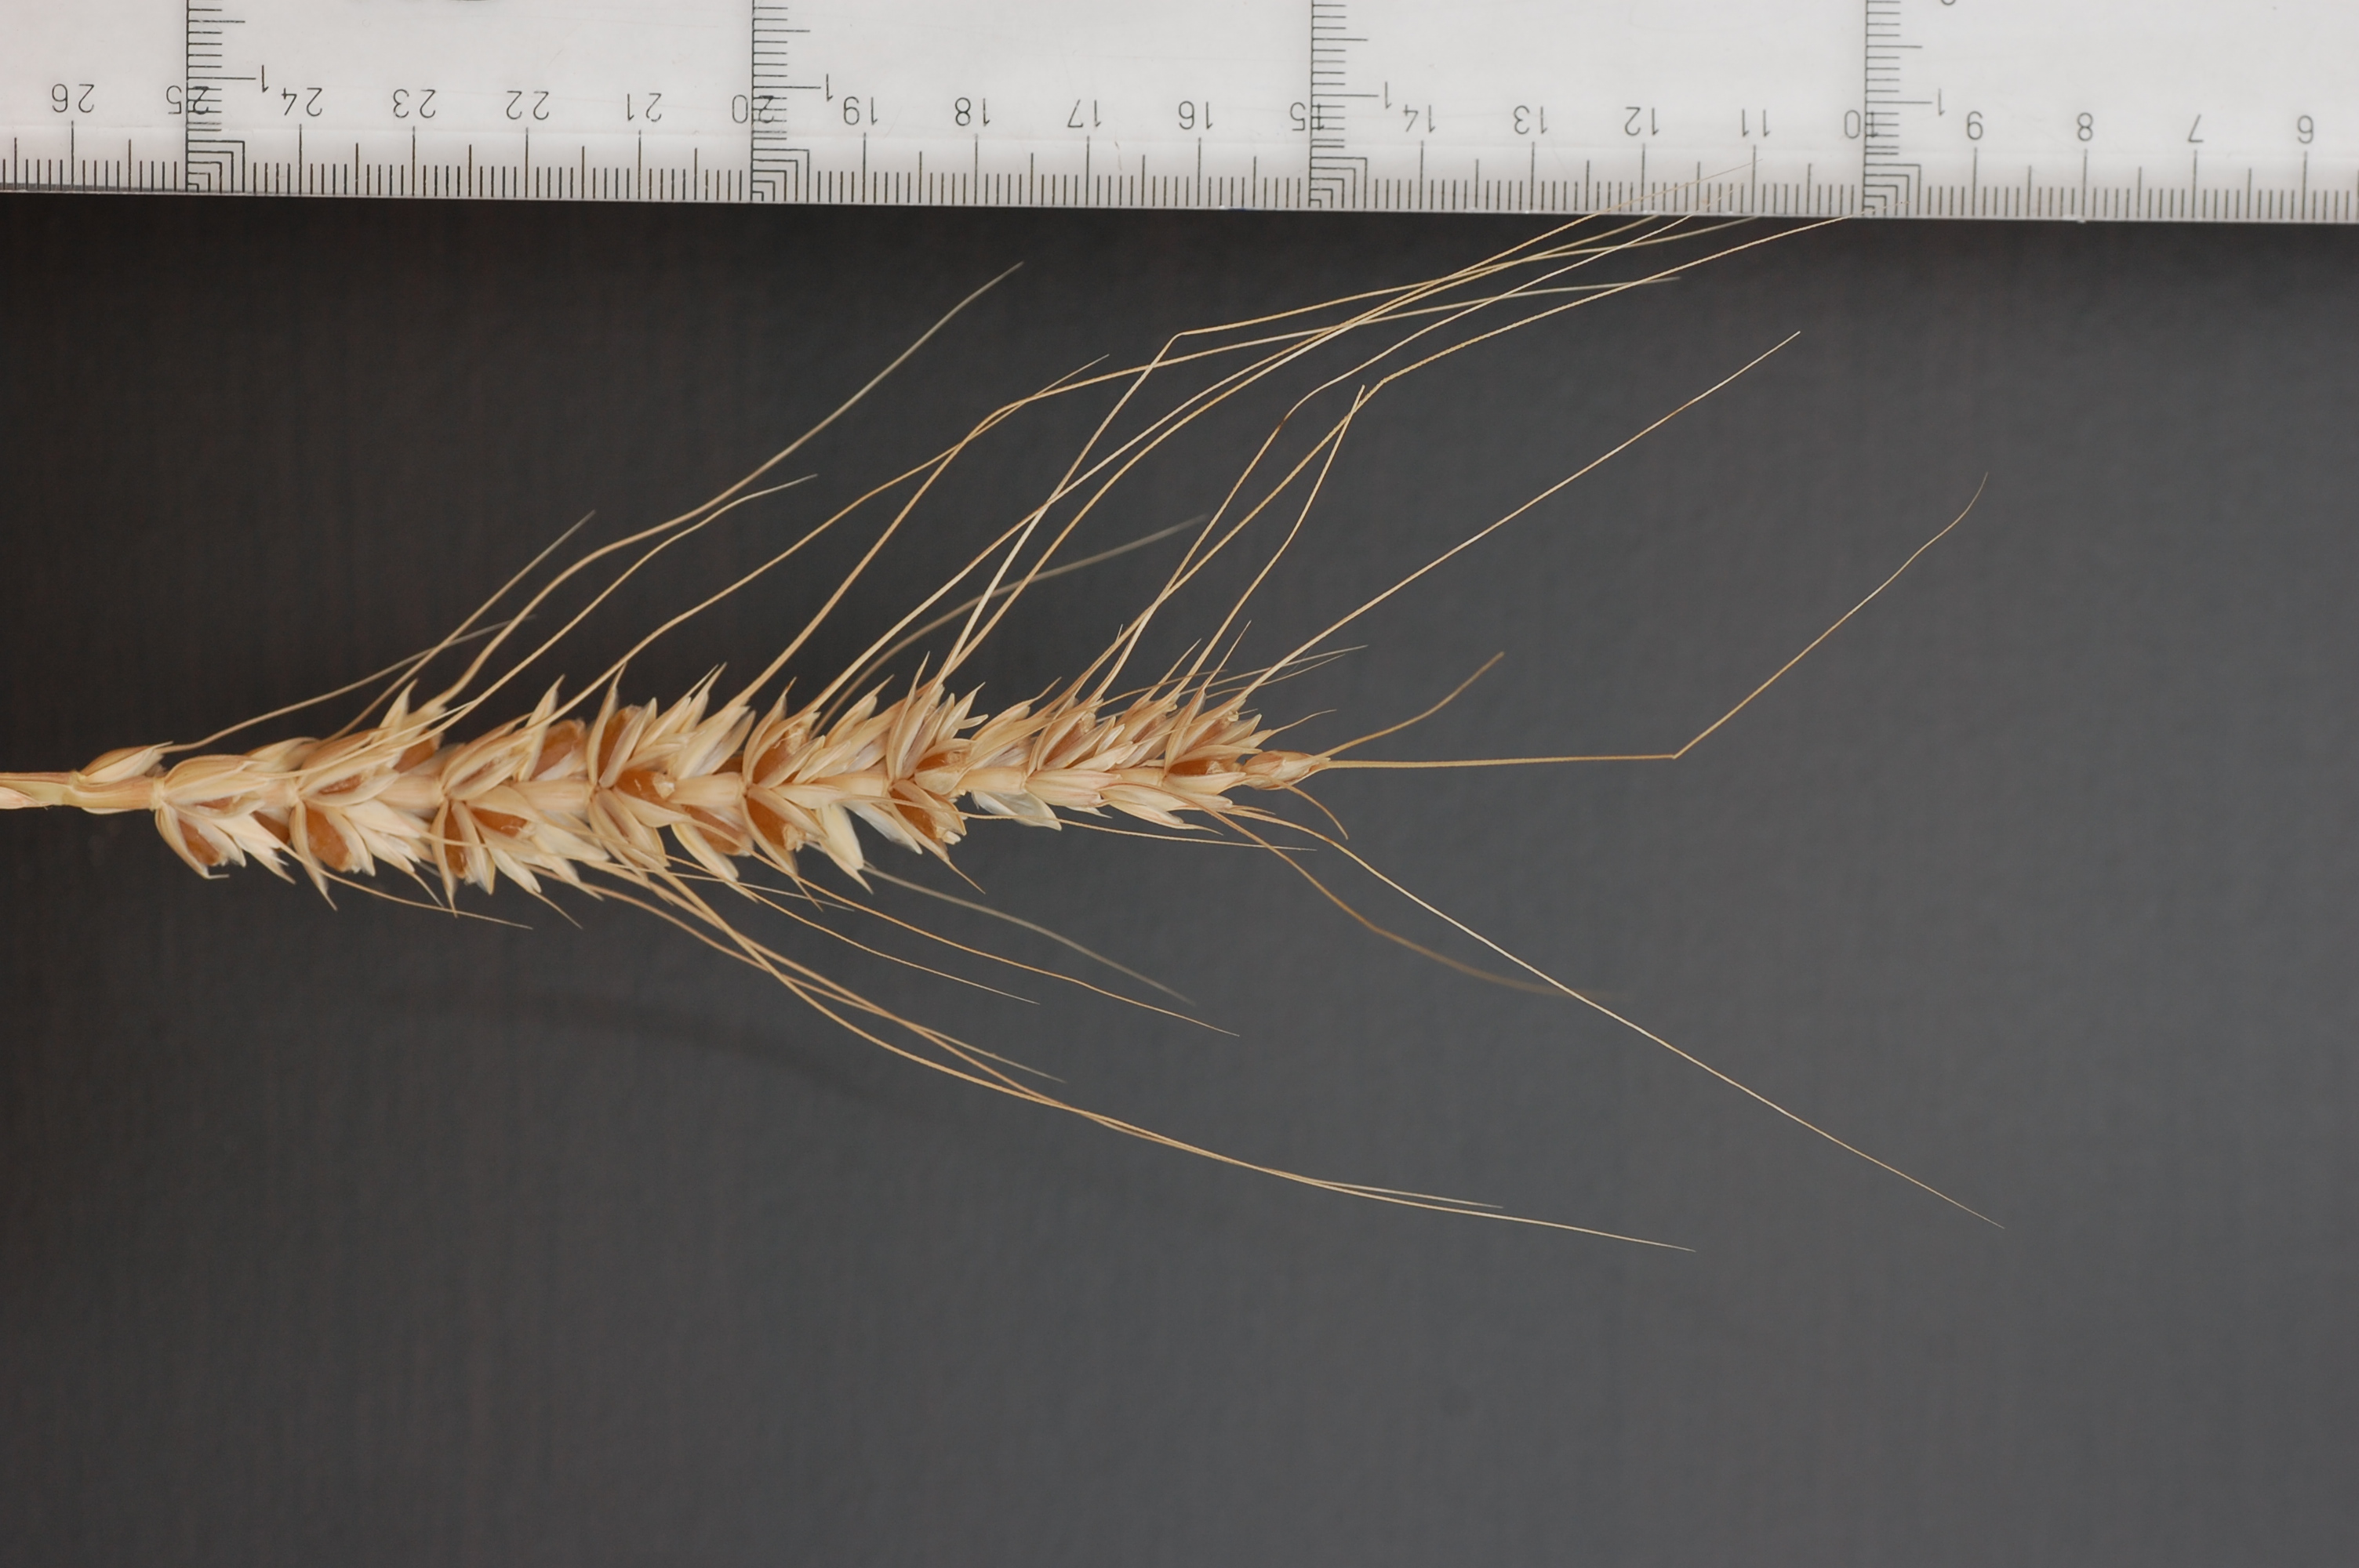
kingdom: Plantae
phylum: Tracheophyta
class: Liliopsida
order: Poales
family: Poaceae
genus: Triticum
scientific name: Triticum aestivum
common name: Common wheat
